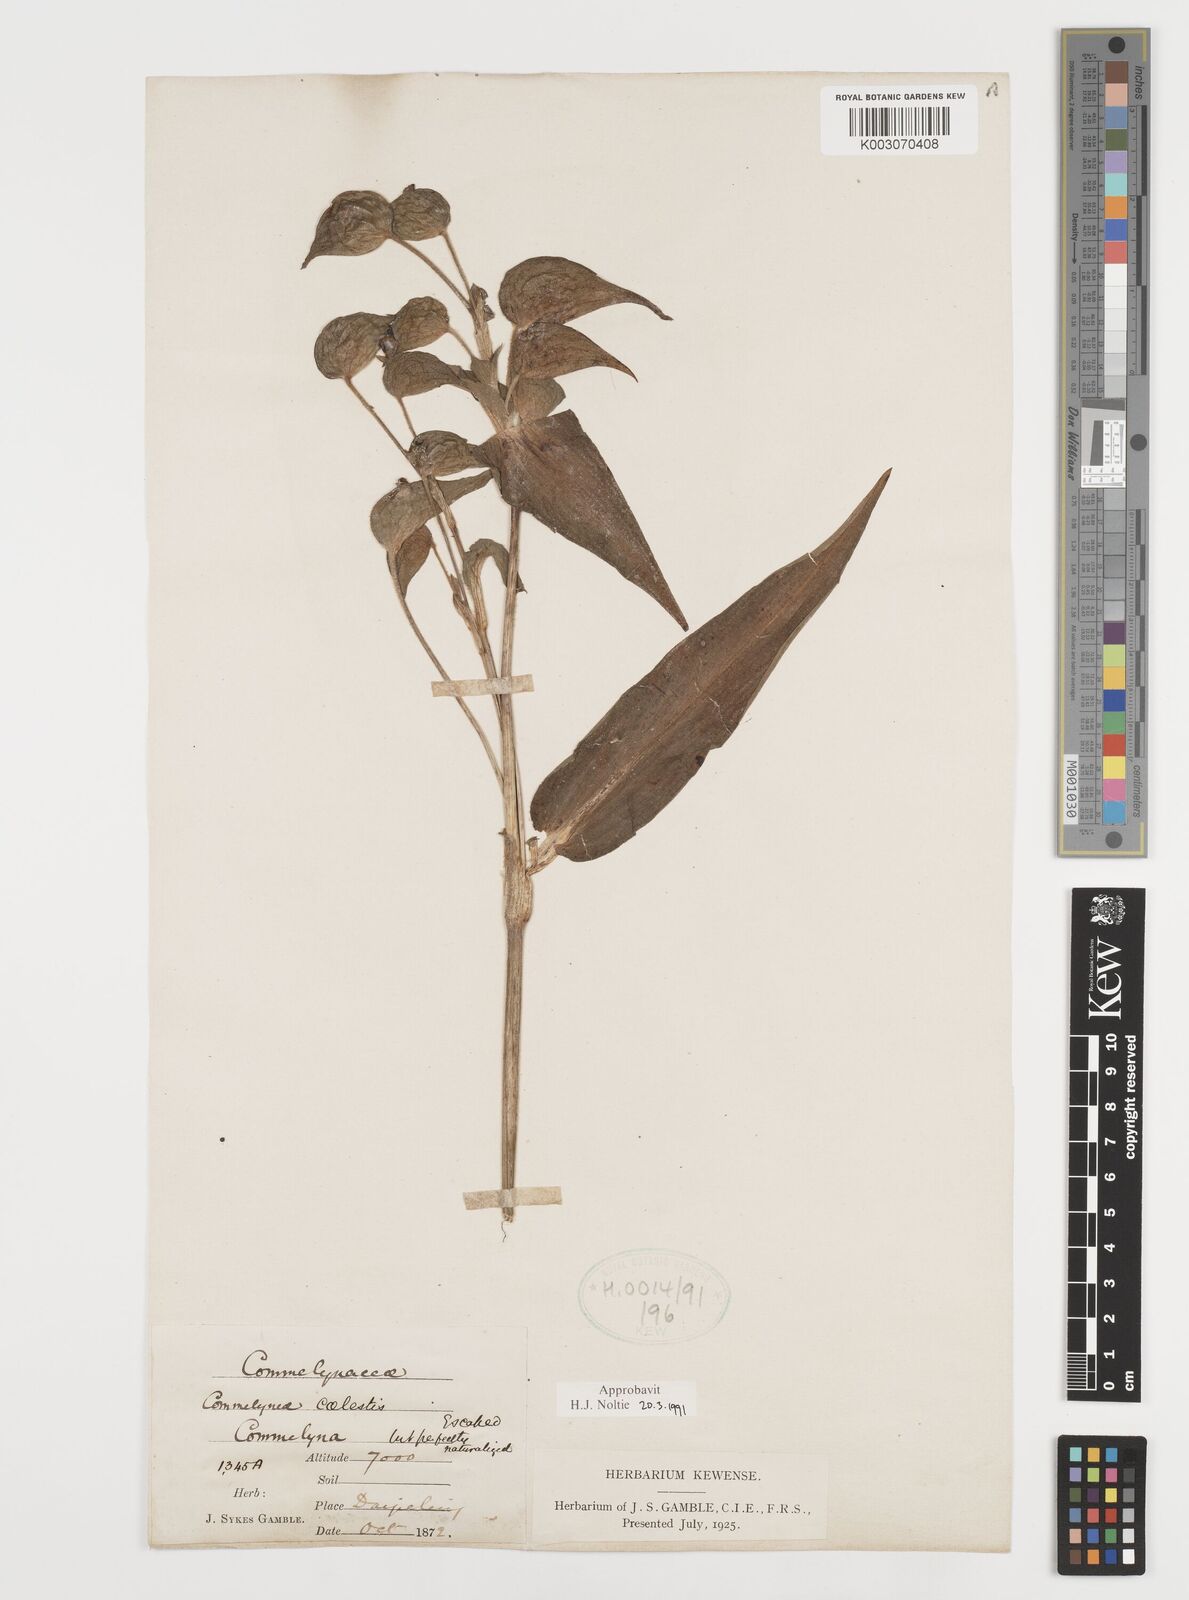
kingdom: Plantae
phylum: Tracheophyta
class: Liliopsida
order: Commelinales
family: Commelinaceae
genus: Commelina
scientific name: Commelina tuberosa
